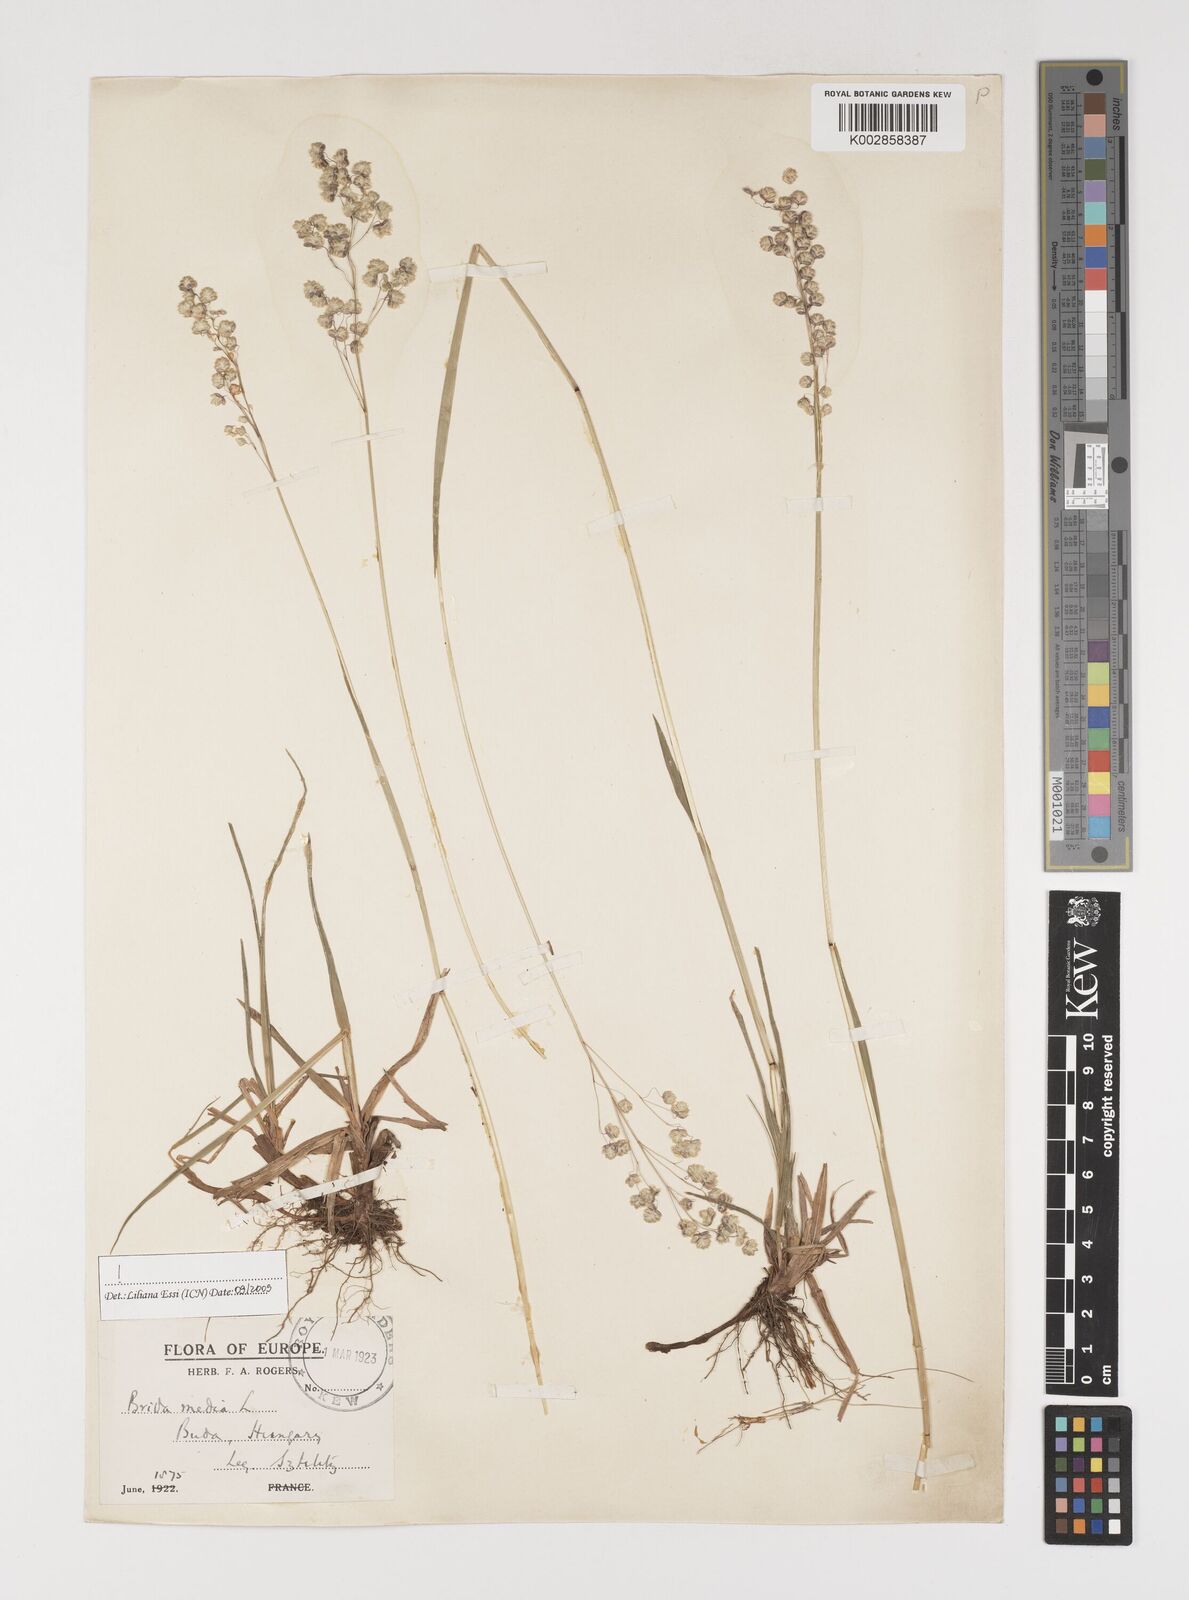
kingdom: Plantae
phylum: Tracheophyta
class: Liliopsida
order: Poales
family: Poaceae
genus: Briza
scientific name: Briza media
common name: Quaking grass
